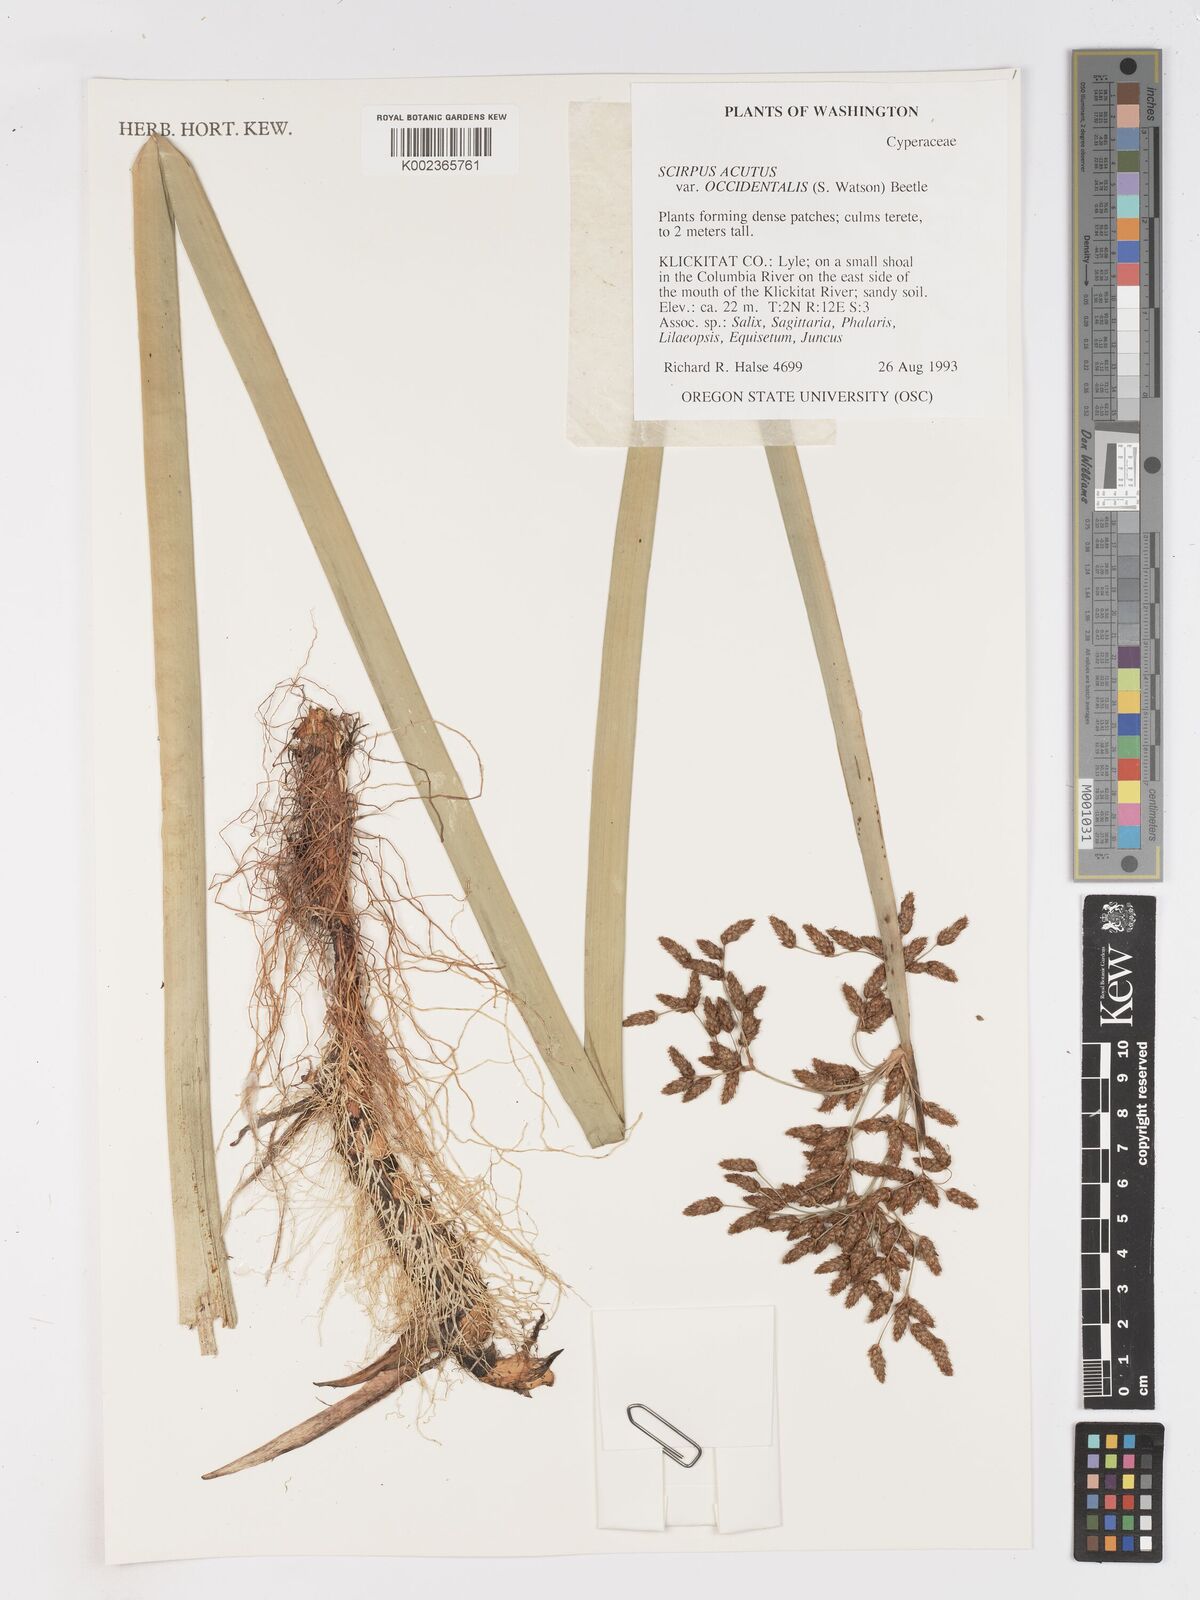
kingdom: Plantae
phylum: Tracheophyta
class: Liliopsida
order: Poales
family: Cyperaceae
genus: Schoenoplectus
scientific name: Schoenoplectus
